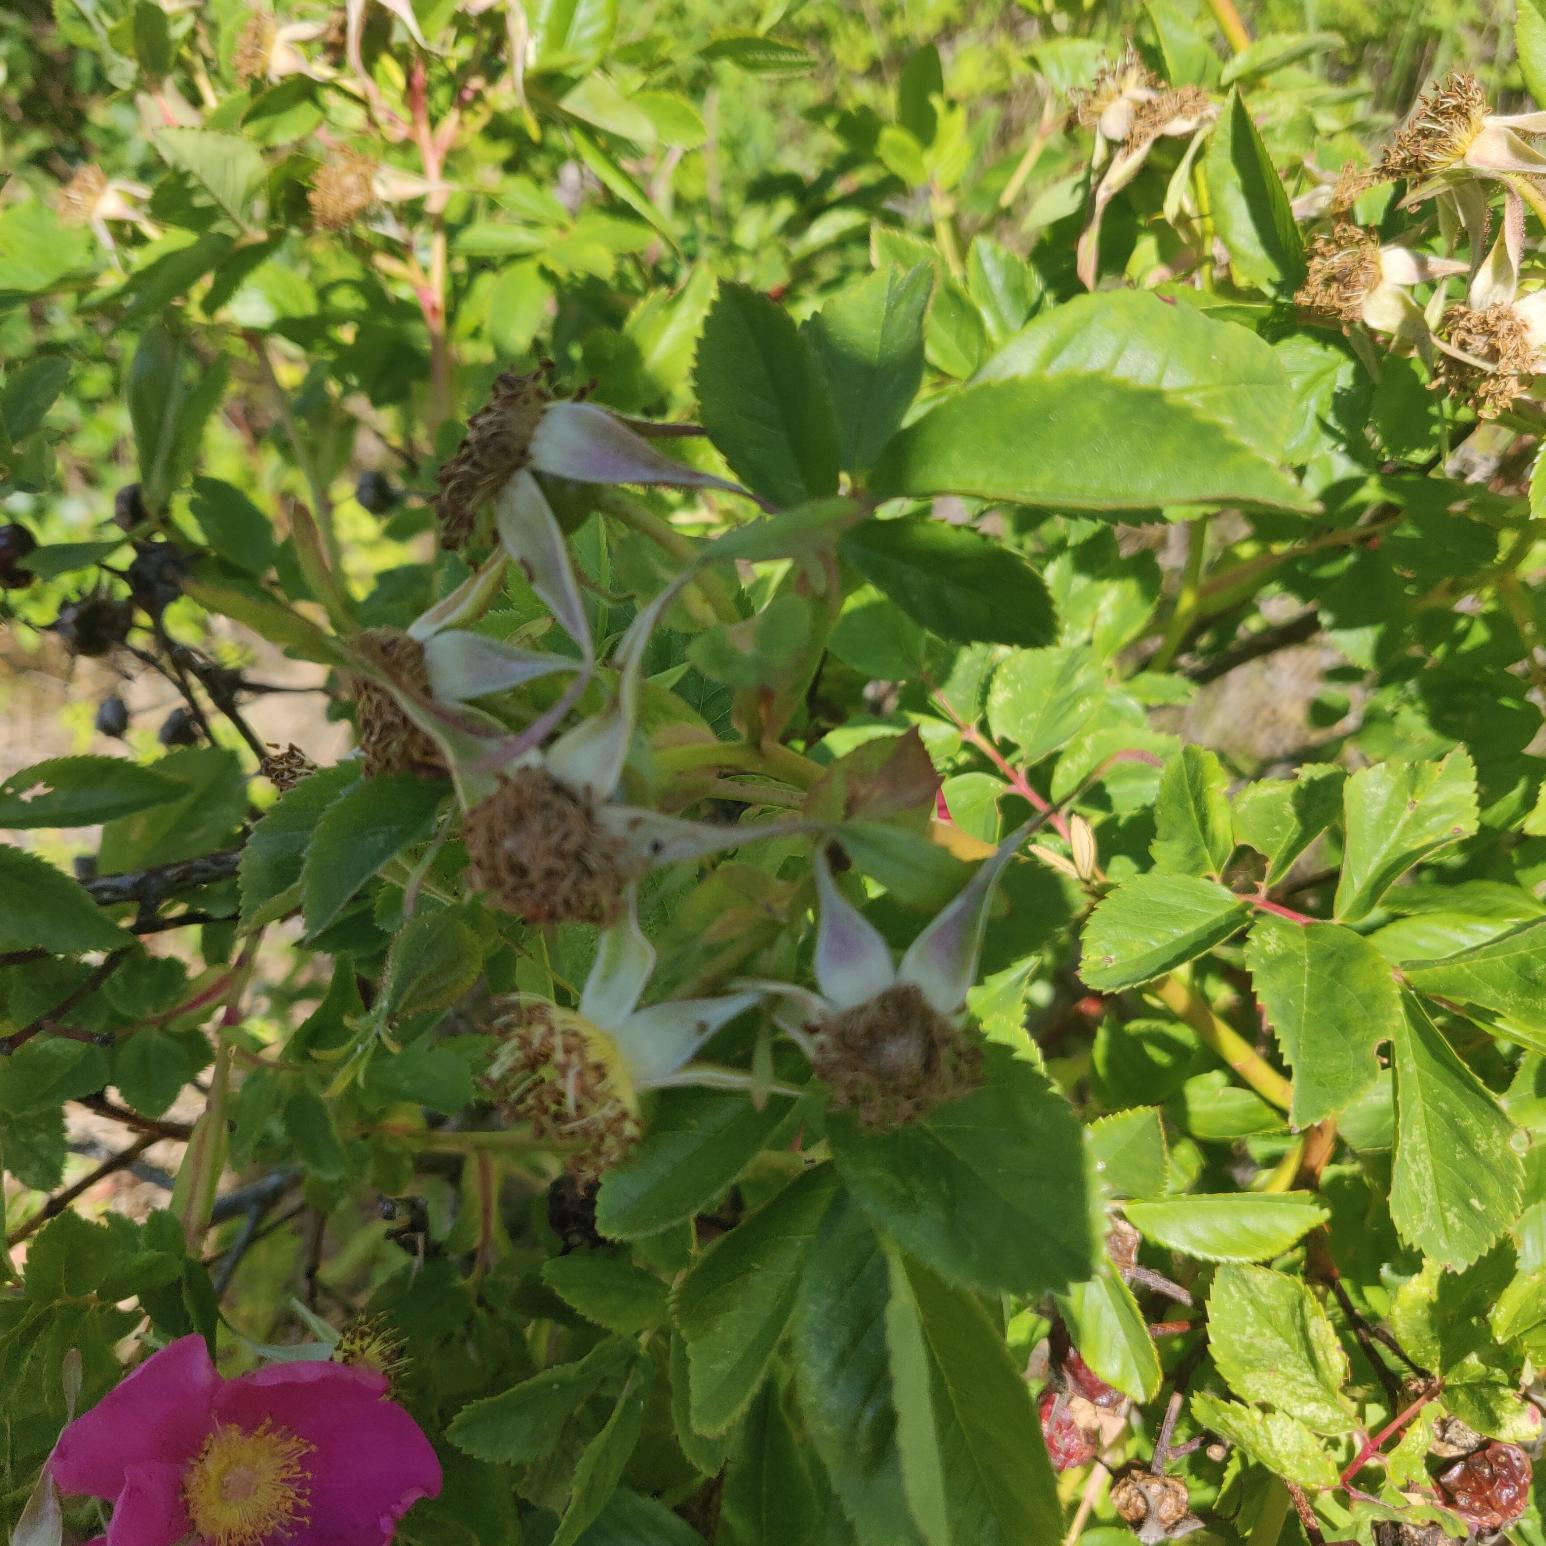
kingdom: Plantae
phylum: Tracheophyta
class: Magnoliopsida
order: Rosales
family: Rosaceae
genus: Rosa
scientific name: Rosa carolina
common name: Glansbladet rose
